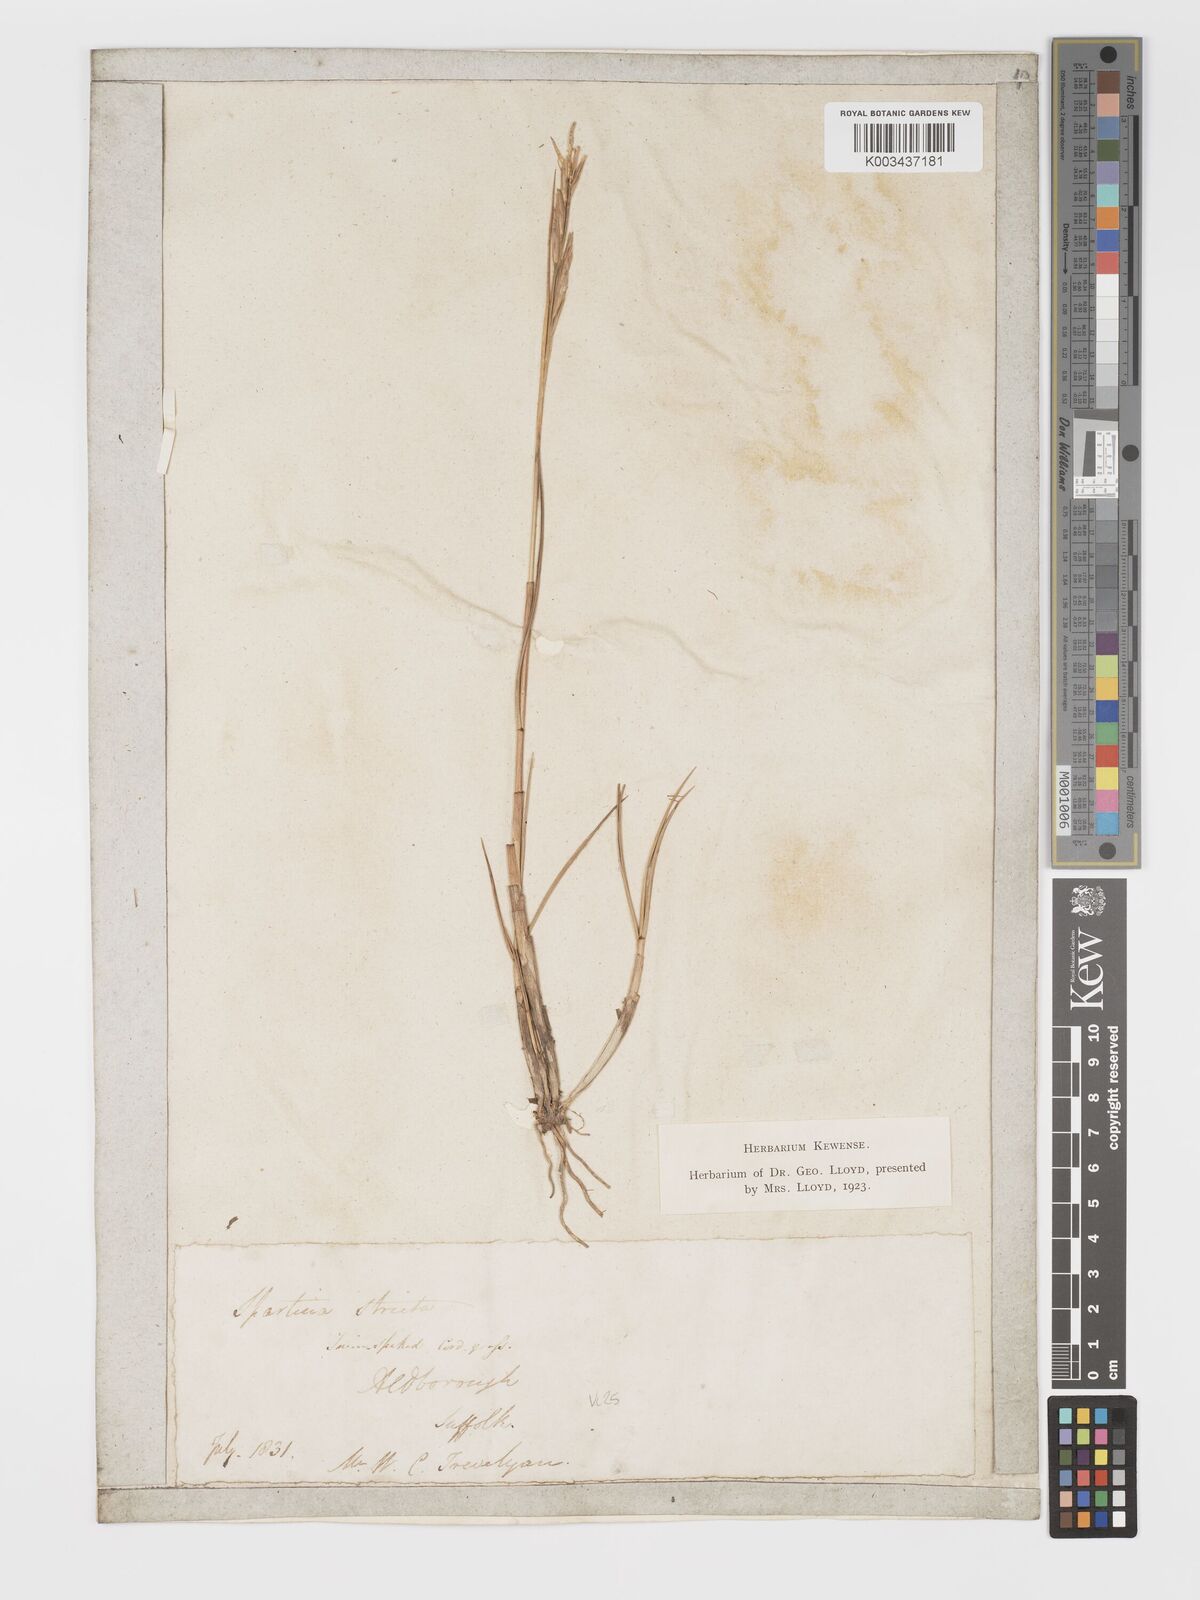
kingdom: Plantae
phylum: Tracheophyta
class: Liliopsida
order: Poales
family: Poaceae
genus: Sporobolus
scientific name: Sporobolus maritimus
